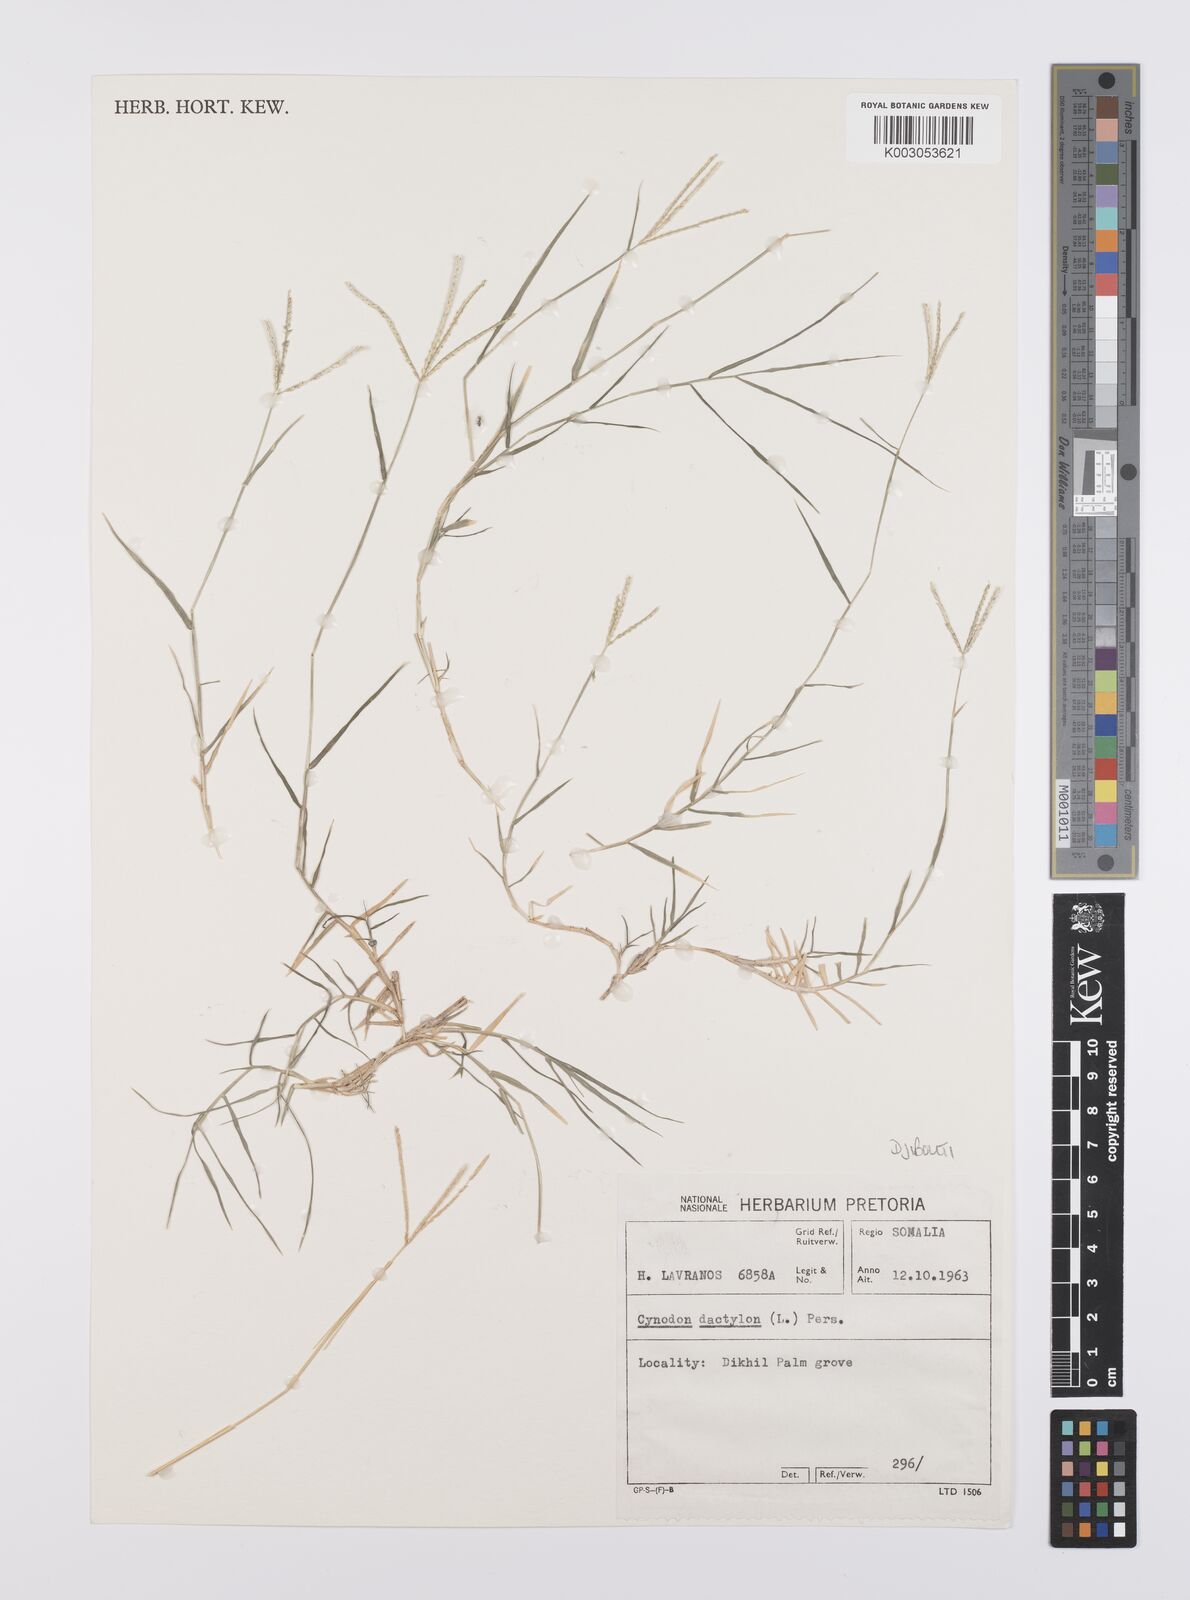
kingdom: Plantae
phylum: Tracheophyta
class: Liliopsida
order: Poales
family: Poaceae
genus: Cynodon
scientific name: Cynodon dactylon
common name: Bermuda grass
